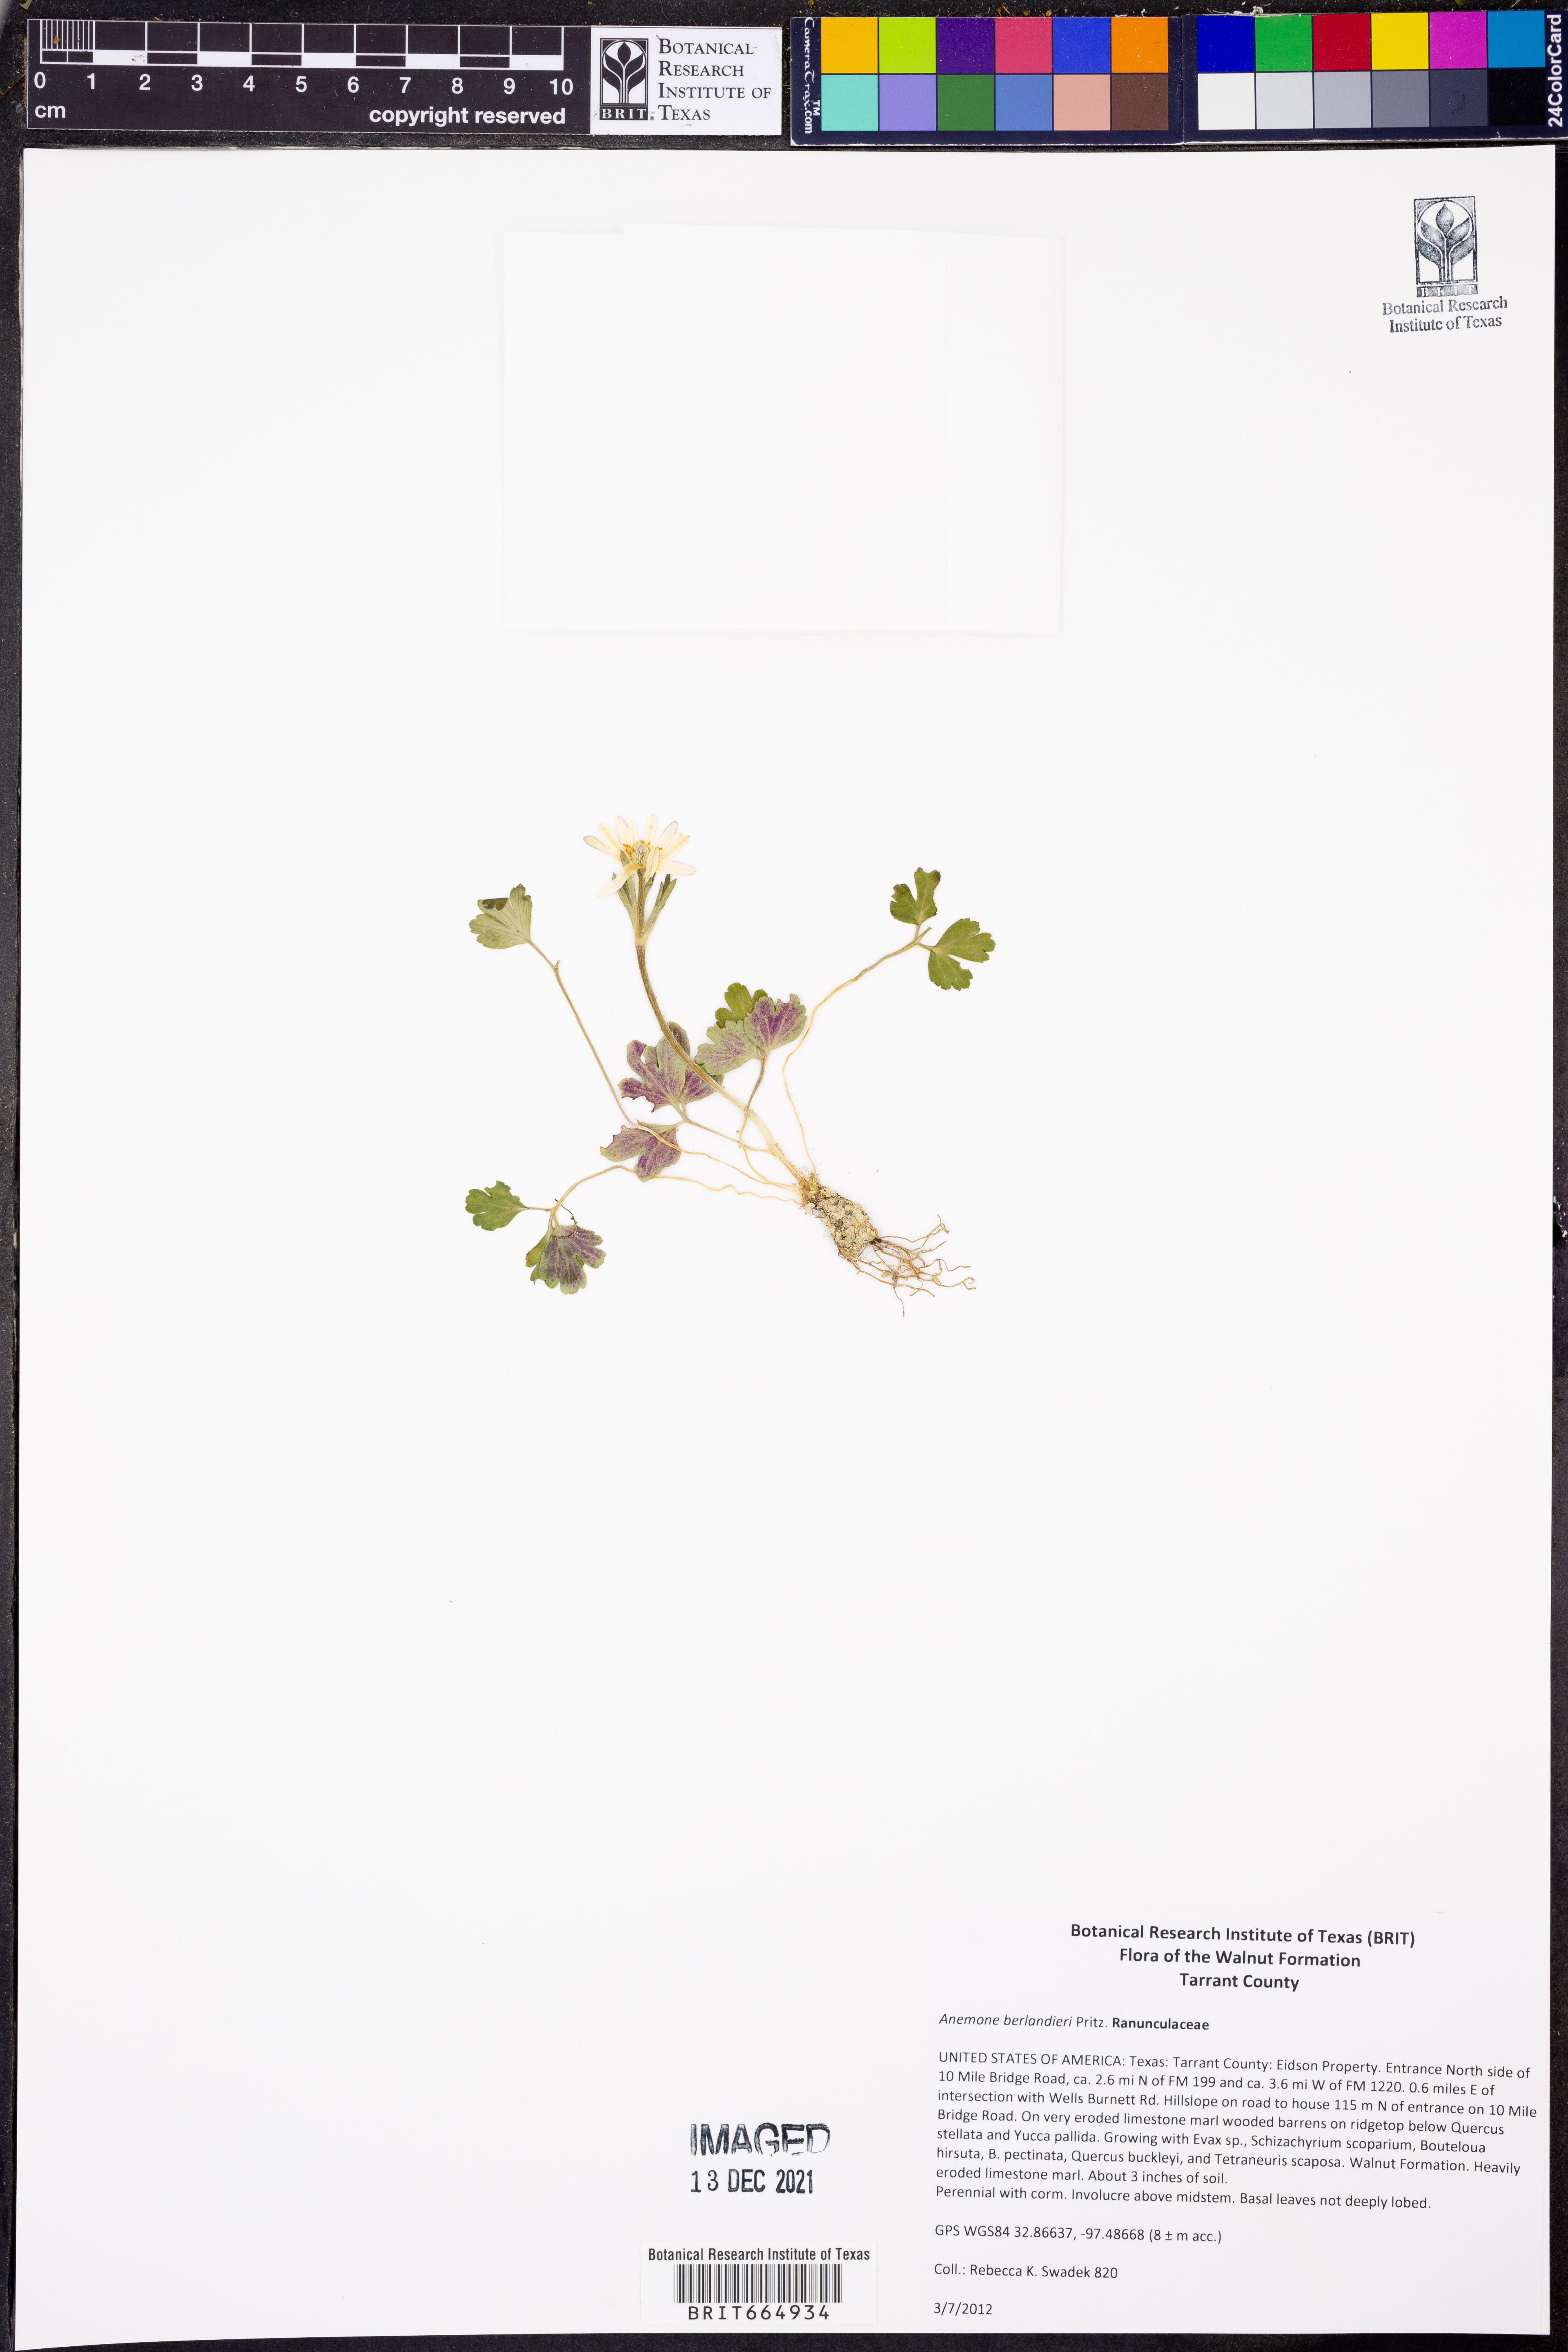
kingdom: Plantae
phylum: Tracheophyta
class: Magnoliopsida
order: Ranunculales
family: Ranunculaceae
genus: Anemone
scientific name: Anemone berlandieri
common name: Ten-petal anemone
